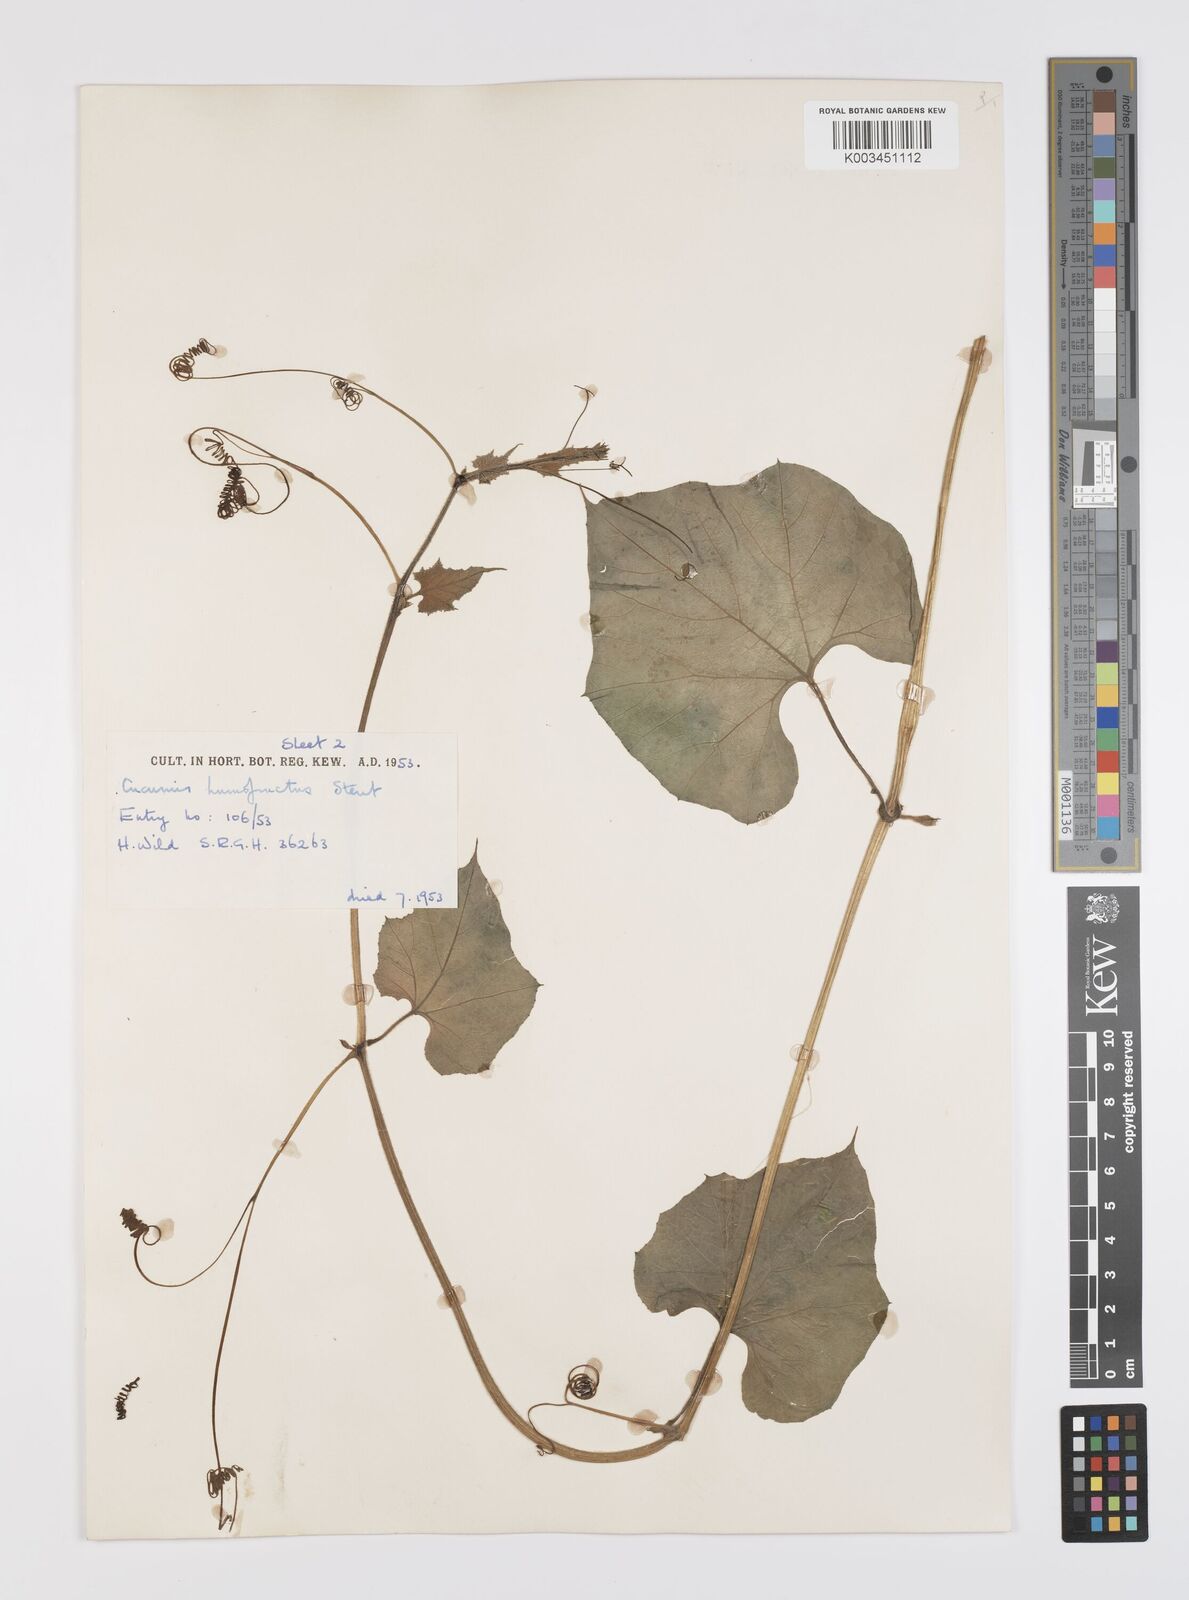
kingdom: Plantae
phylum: Tracheophyta
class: Magnoliopsida
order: Cucurbitales
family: Cucurbitaceae
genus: Lagenaria
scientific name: Lagenaria siceraria
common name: Bottle gourd
